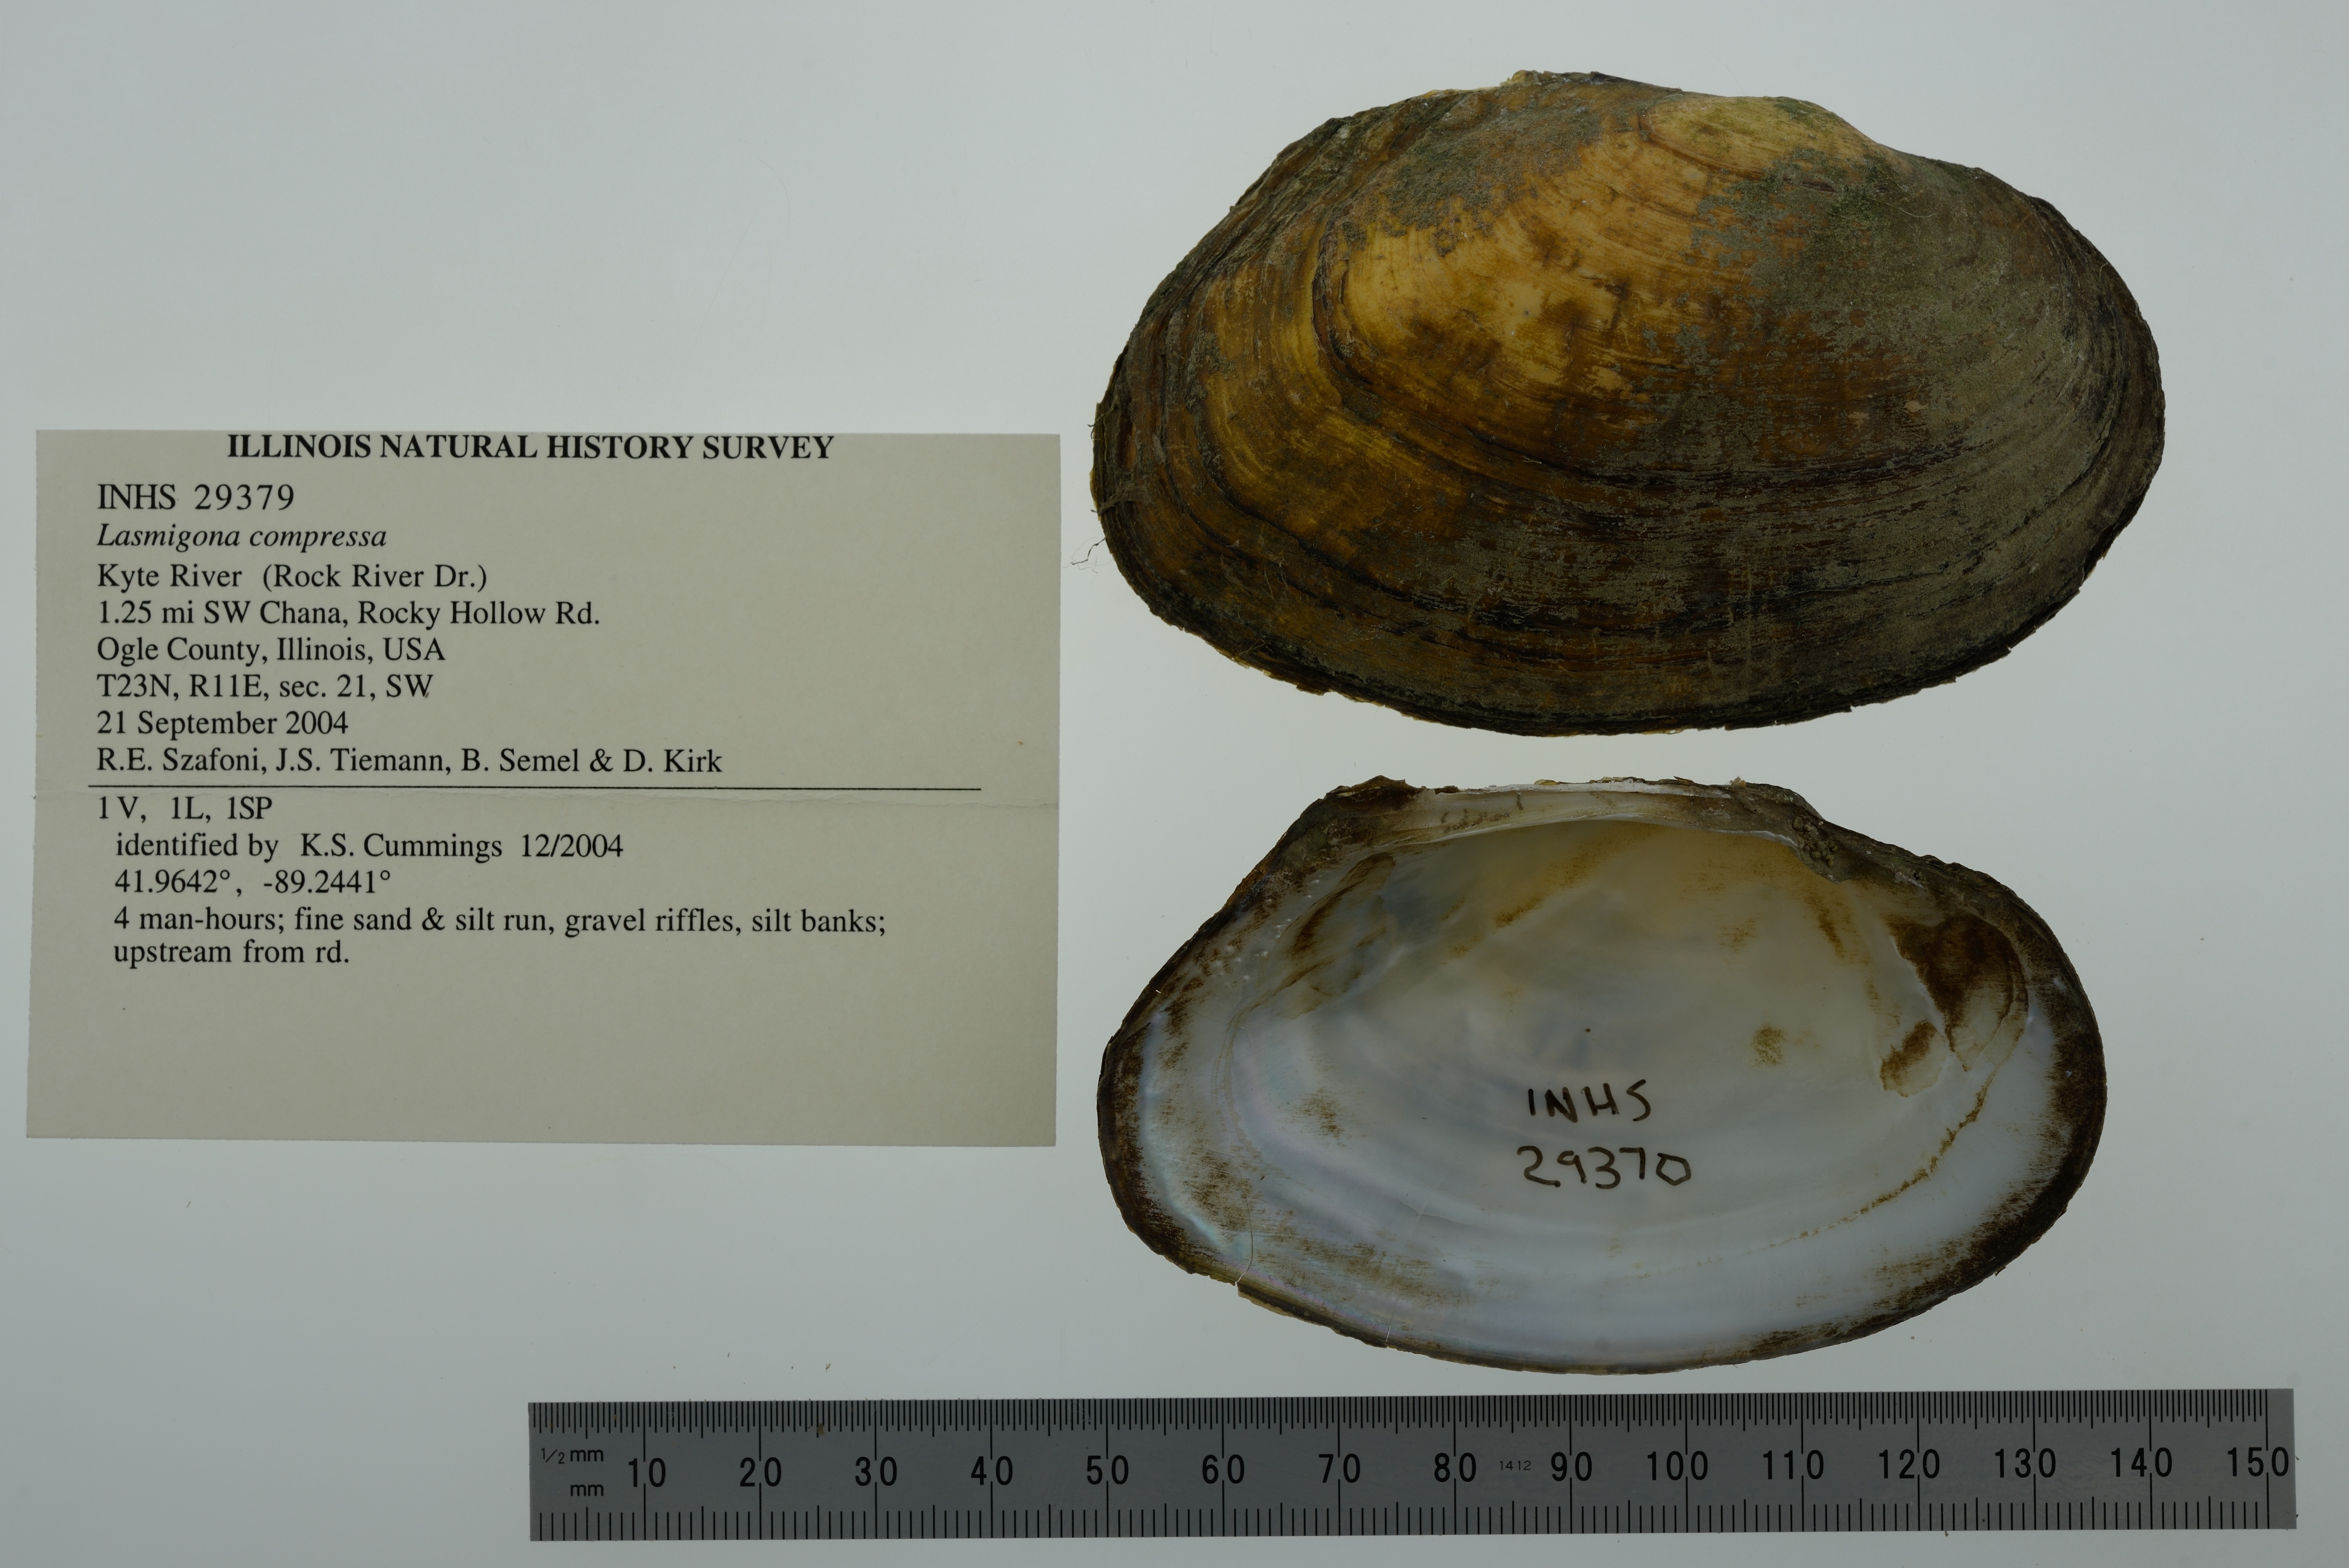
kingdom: Animalia
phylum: Mollusca
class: Bivalvia
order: Unionida
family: Unionidae
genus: Lasmigona
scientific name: Lasmigona compressa
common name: Creek heelsplitter
